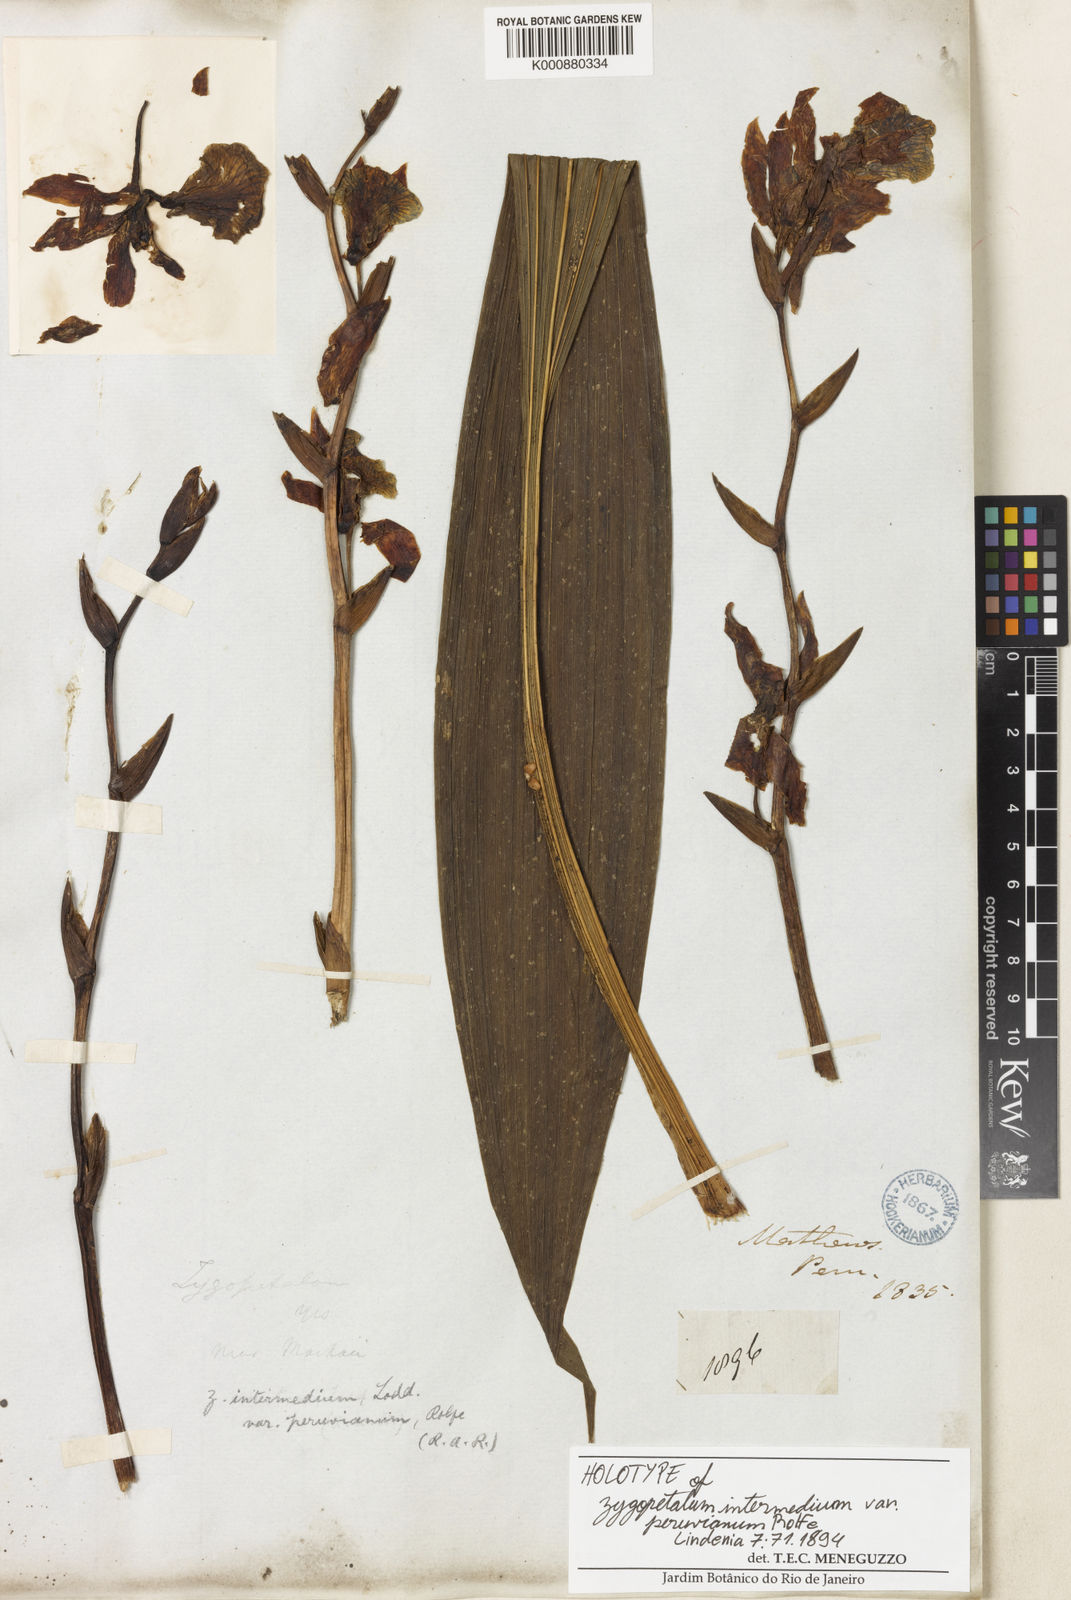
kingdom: Plantae
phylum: Tracheophyta
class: Liliopsida
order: Asparagales
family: Orchidaceae
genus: Zygopetalum
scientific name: Zygopetalum maculatum
